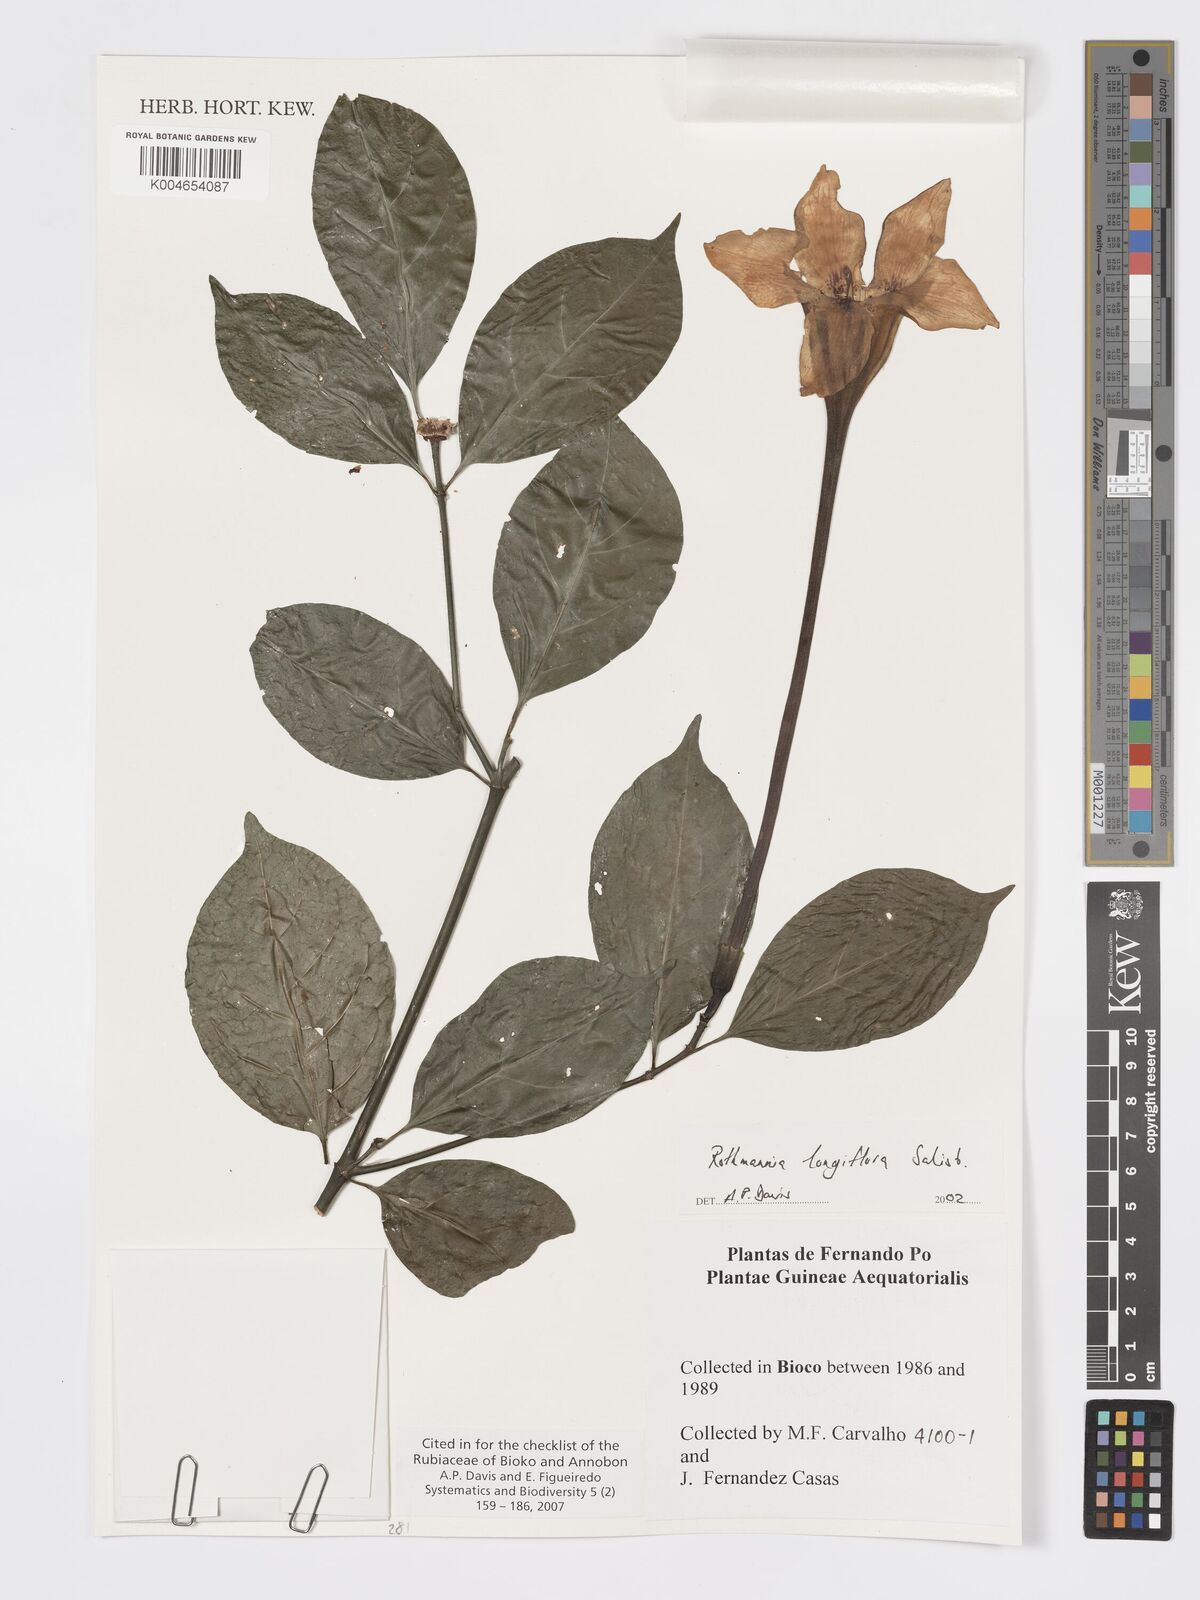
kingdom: Plantae
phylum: Tracheophyta
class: Magnoliopsida
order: Gentianales
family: Rubiaceae
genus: Rothmannia
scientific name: Rothmannia longiflora
